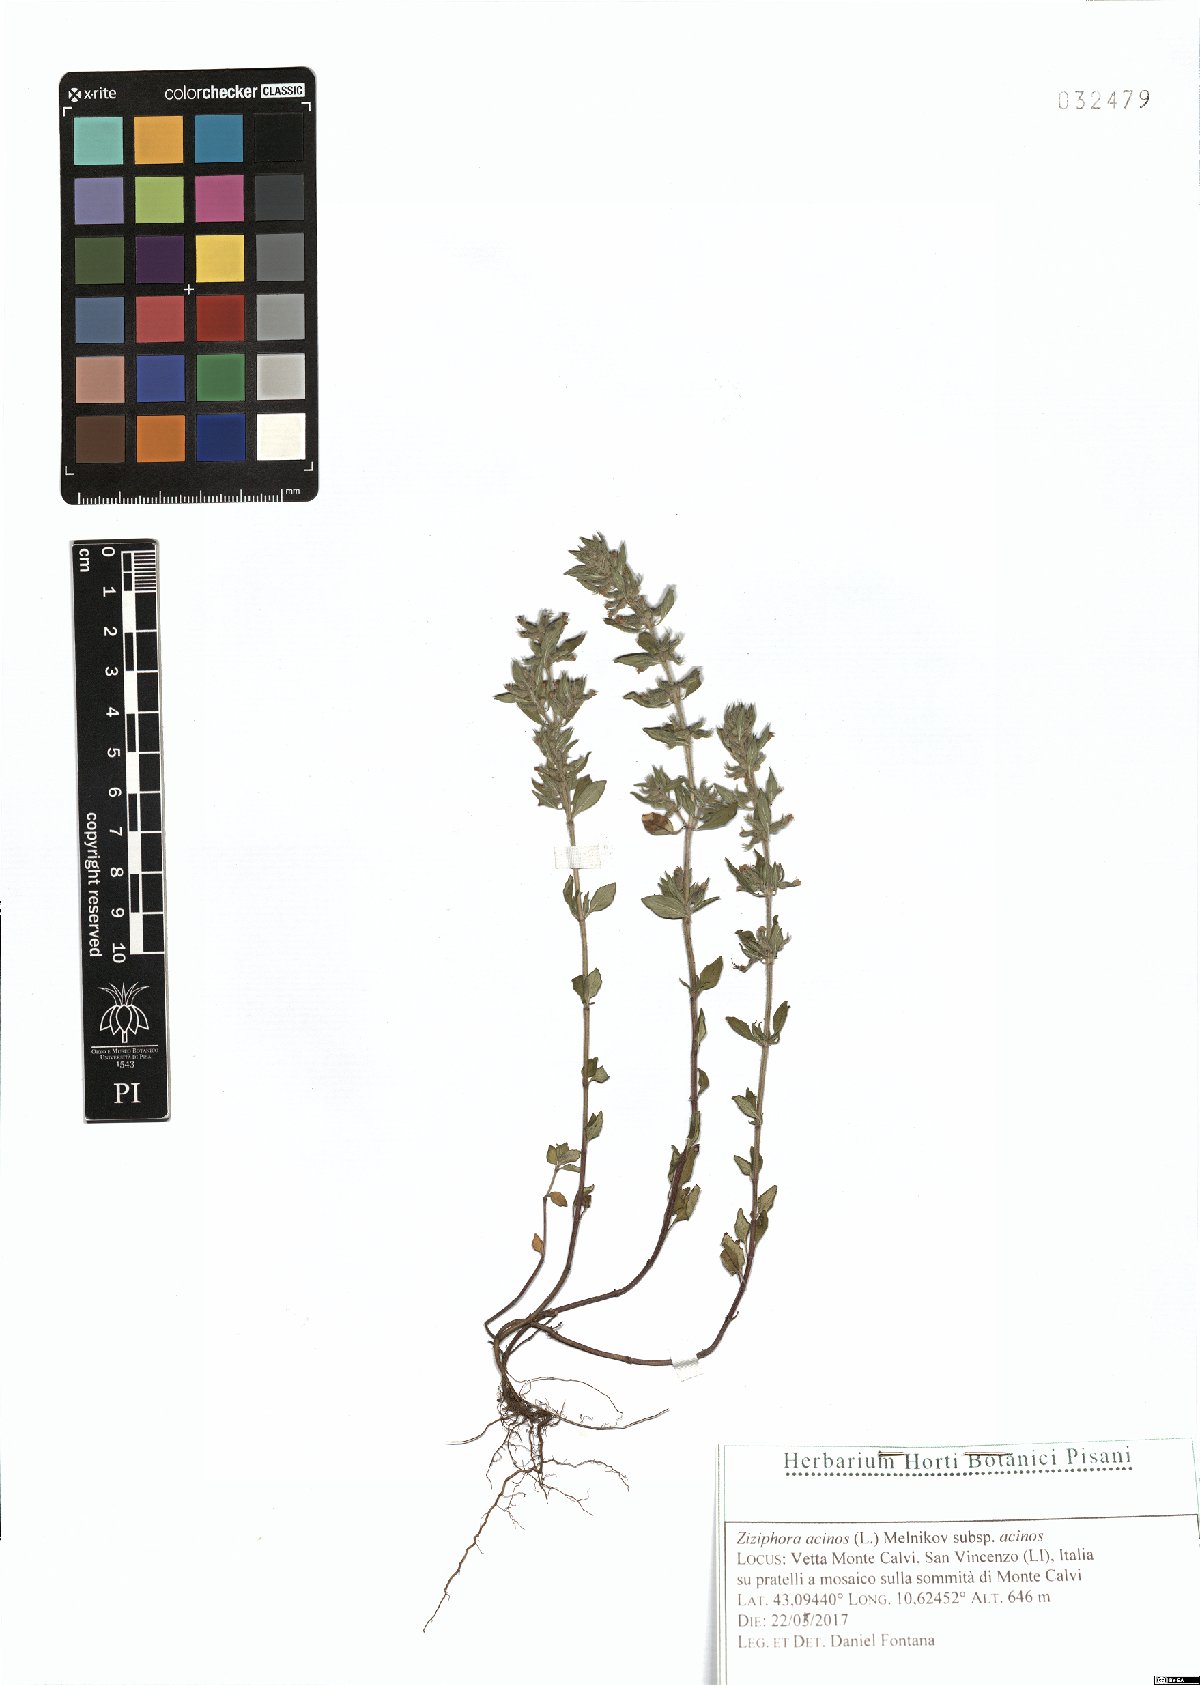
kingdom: Plantae
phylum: Tracheophyta
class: Magnoliopsida
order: Lamiales
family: Lamiaceae
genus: Clinopodium
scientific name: Clinopodium acinos
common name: Basil thyme
